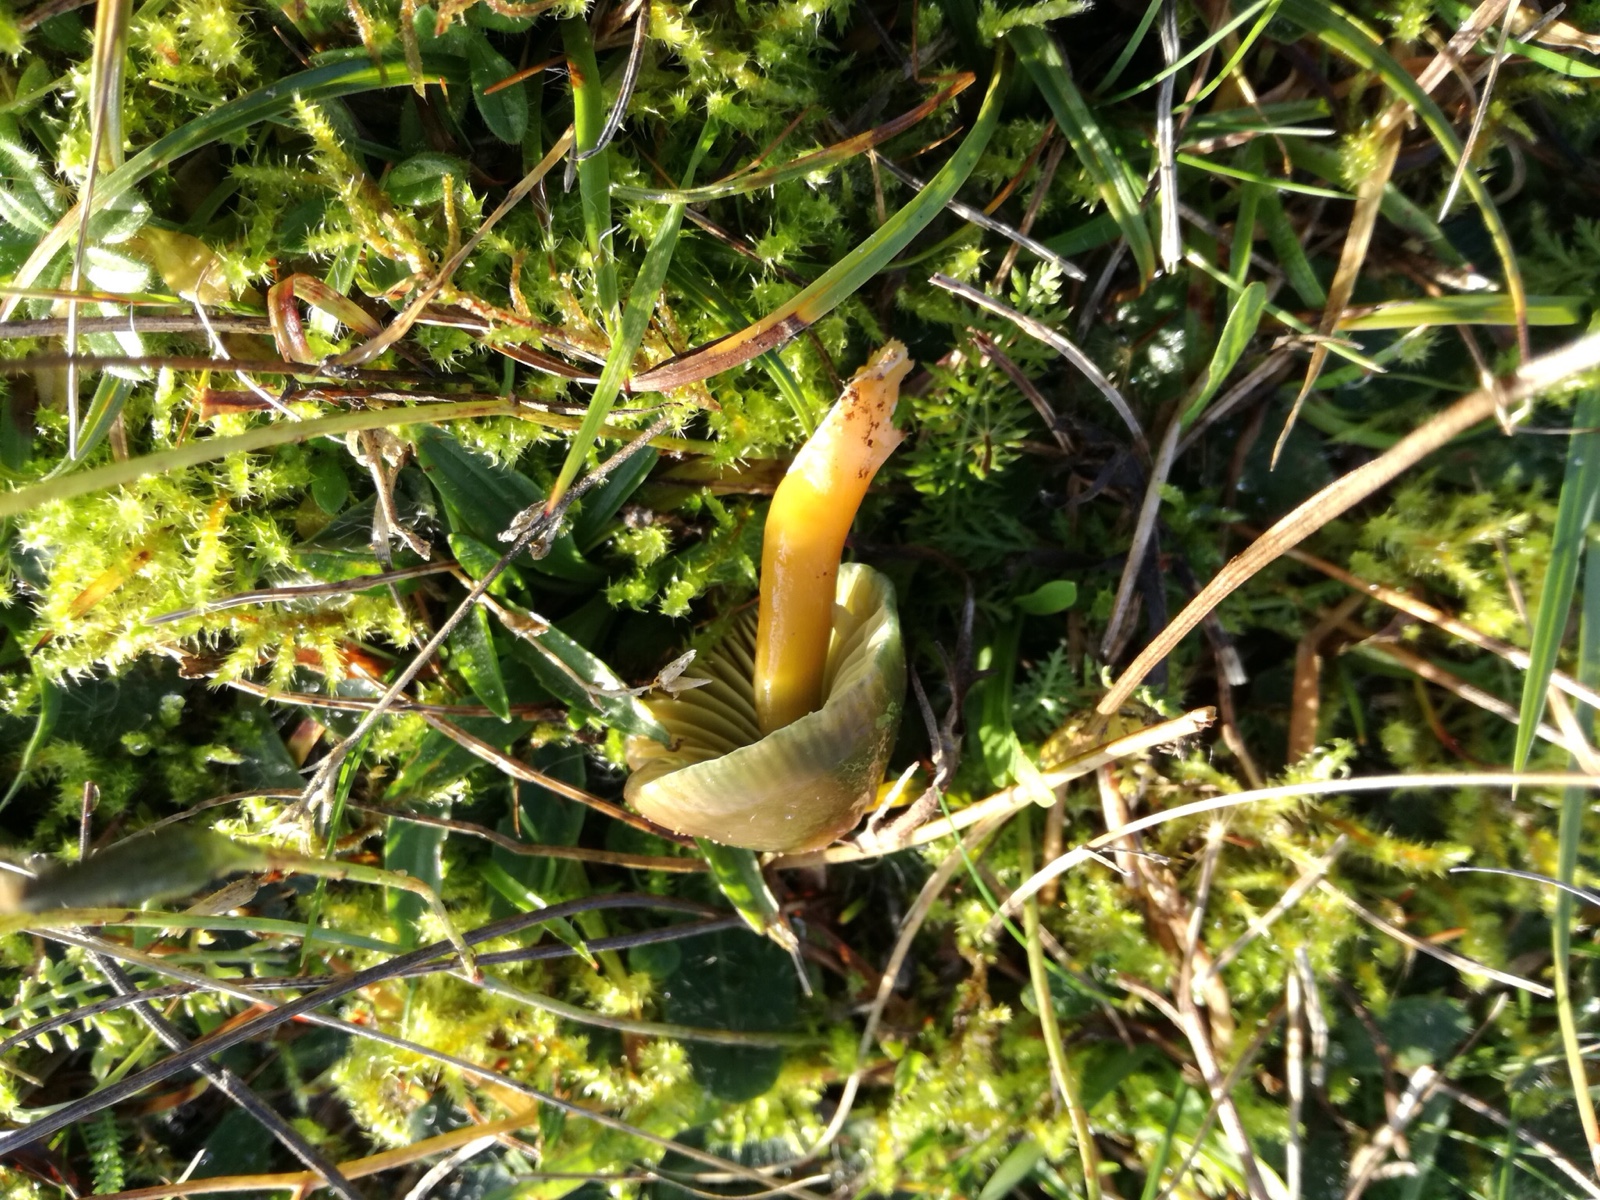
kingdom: Fungi
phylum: Basidiomycota
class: Agaricomycetes
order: Agaricales
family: Hygrophoraceae
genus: Gliophorus
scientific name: Gliophorus psittacinus
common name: papegøje-vokshat
